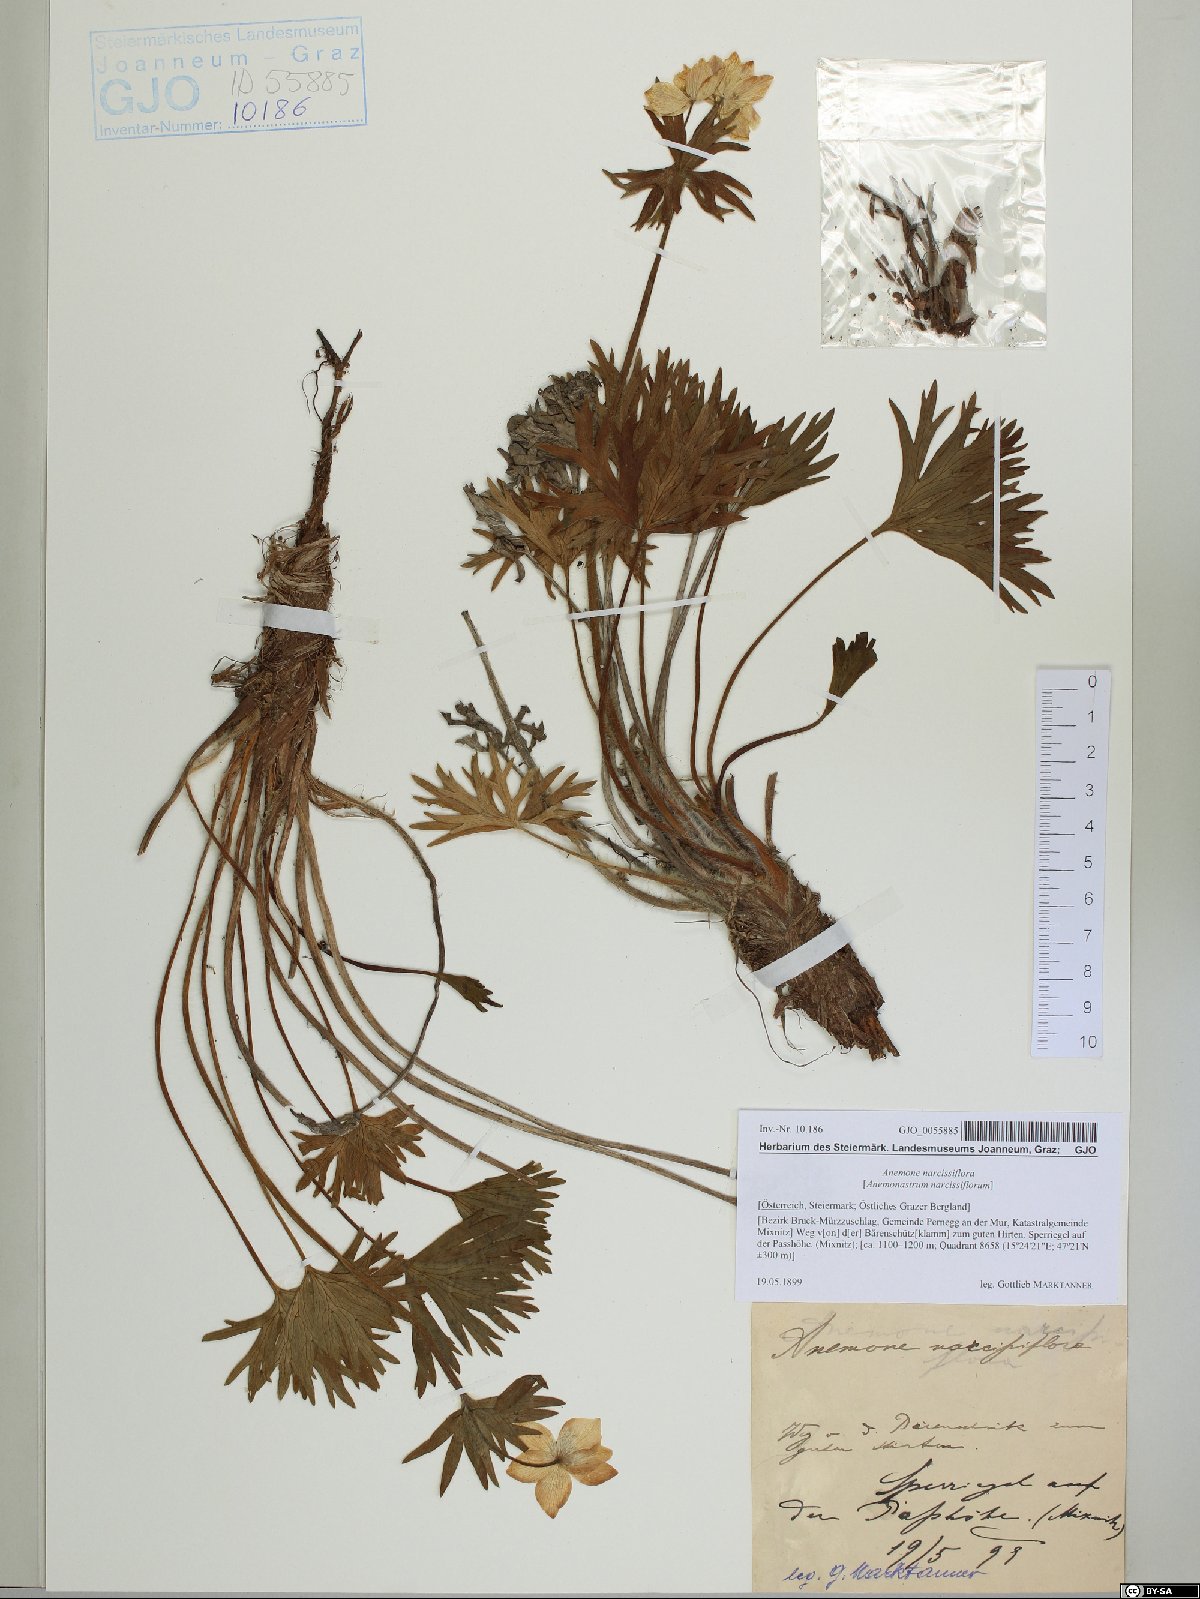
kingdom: Plantae
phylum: Tracheophyta
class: Magnoliopsida
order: Ranunculales
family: Ranunculaceae
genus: Anemonastrum
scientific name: Anemonastrum narcissiflorum
